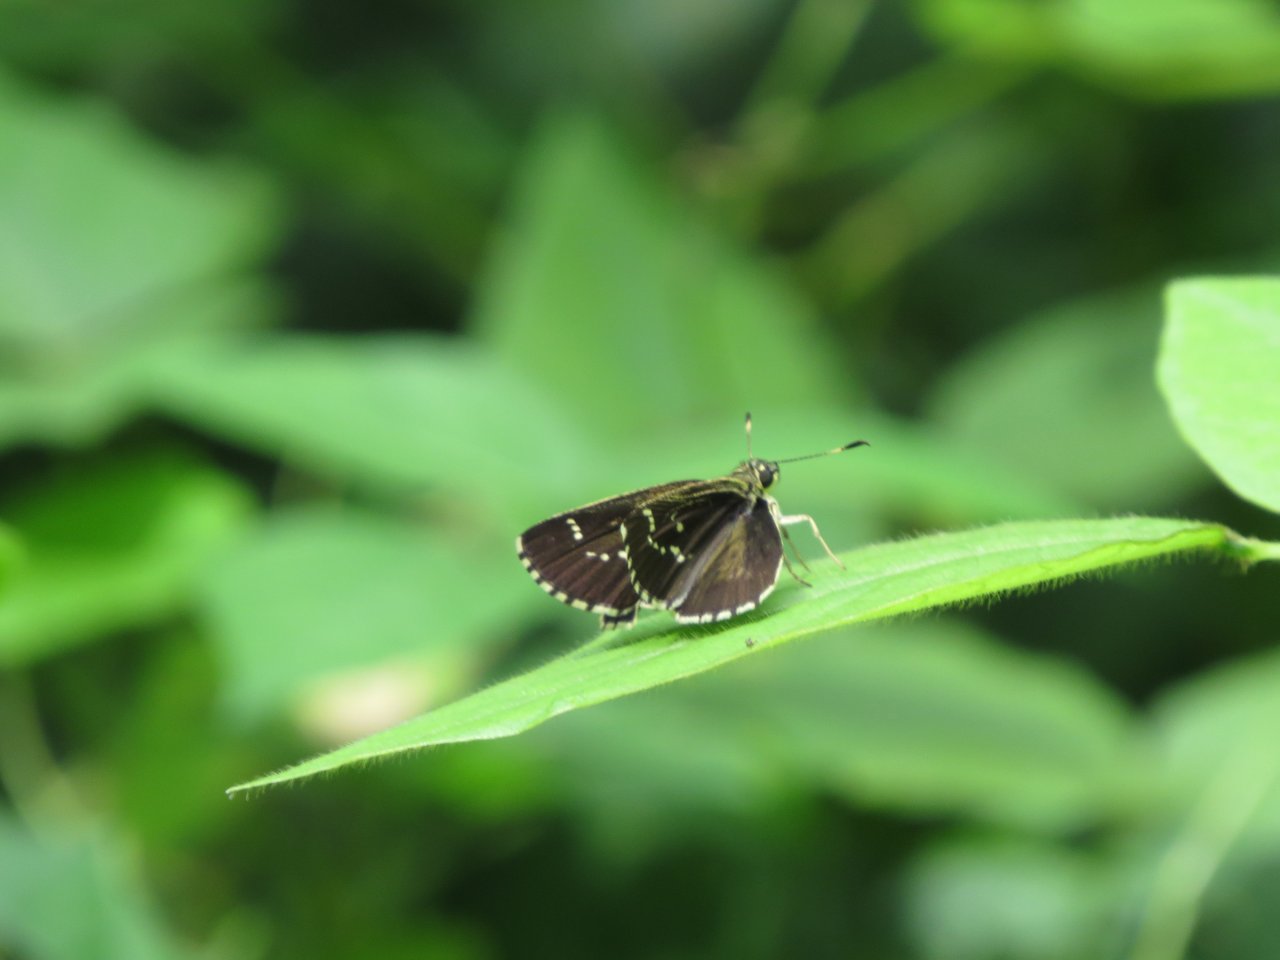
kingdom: Animalia
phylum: Arthropoda
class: Insecta
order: Lepidoptera
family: Hesperiidae
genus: Mastor
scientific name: Mastor aesculapius
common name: Lace-winged Roadside-Skipper
